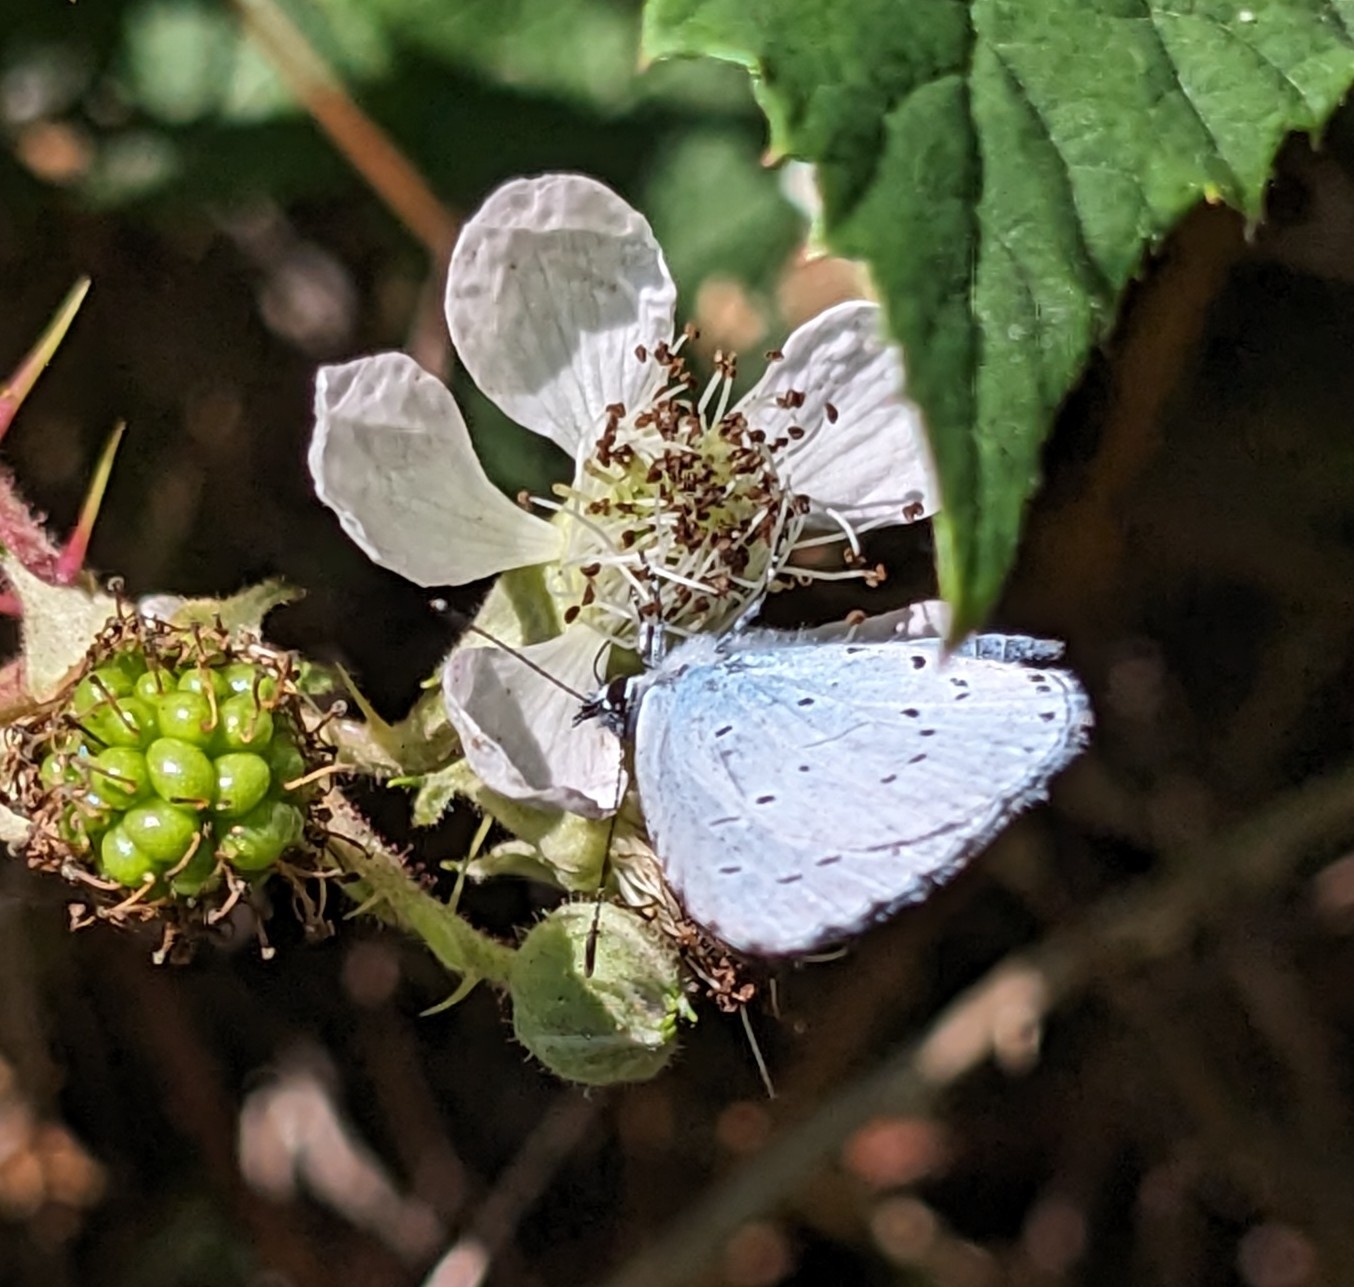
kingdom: Animalia
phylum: Arthropoda
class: Insecta
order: Lepidoptera
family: Lycaenidae
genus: Celastrina
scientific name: Celastrina argiolus
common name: Skovblåfugl
